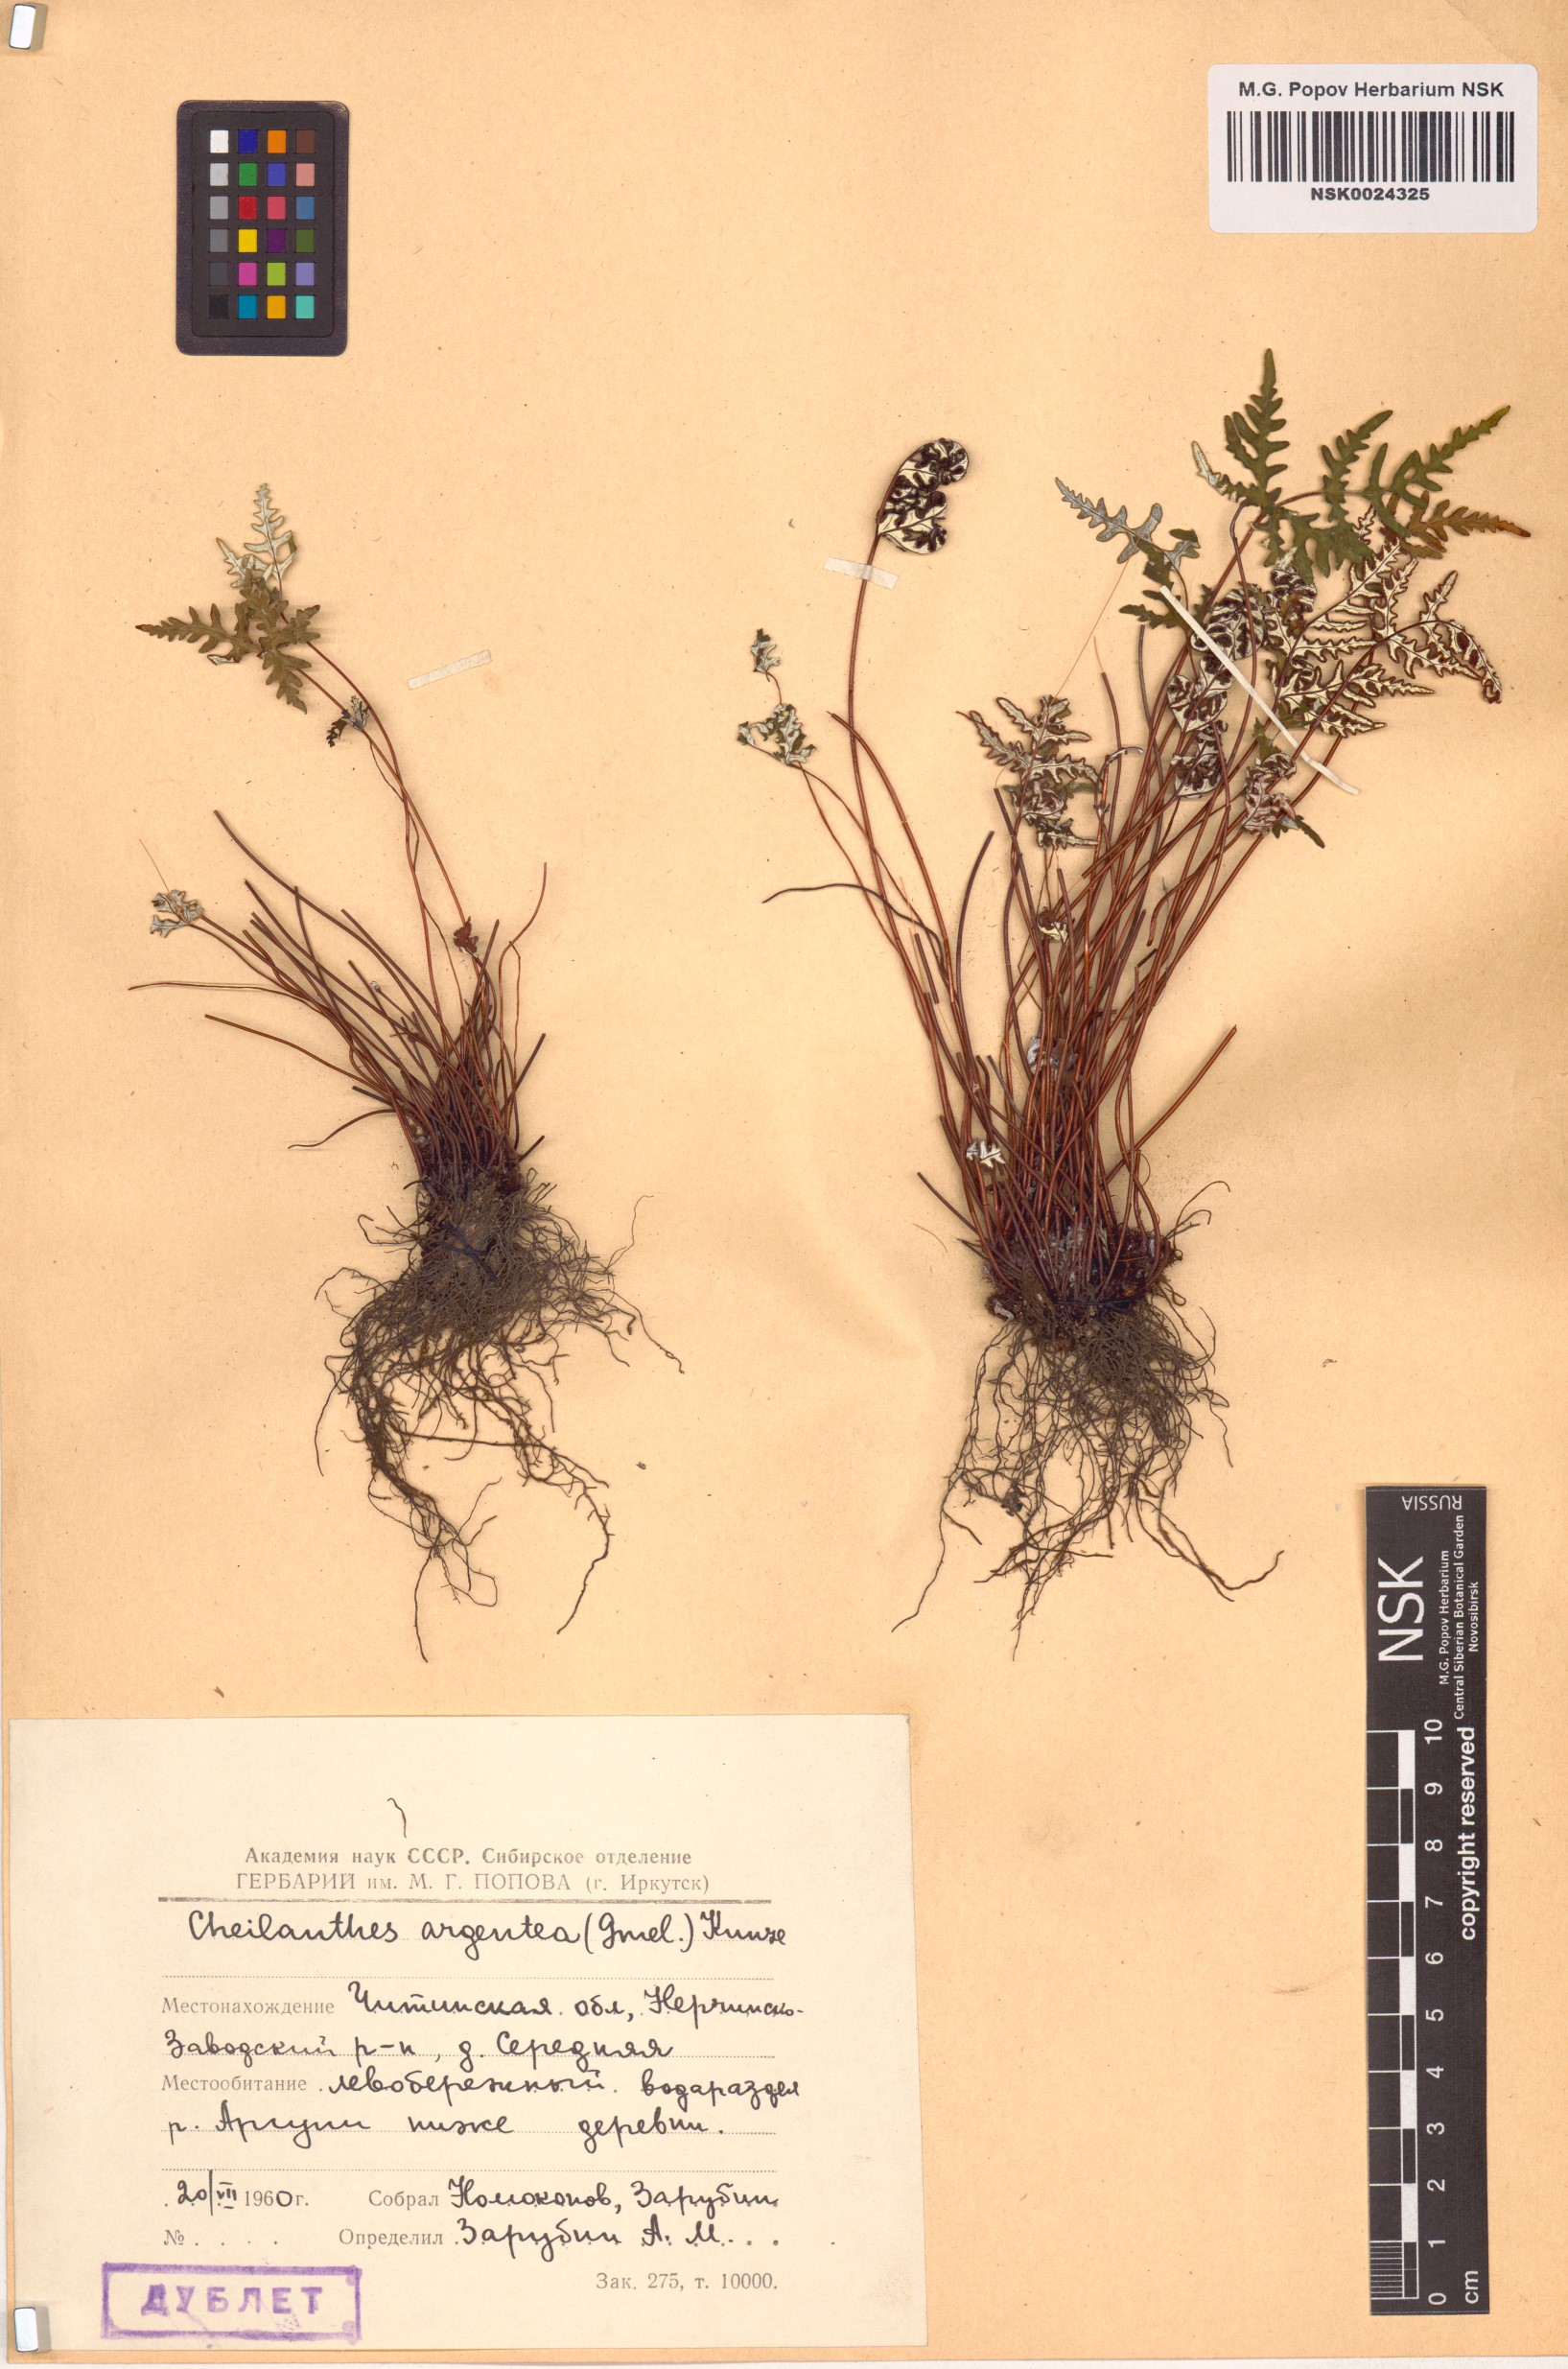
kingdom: Plantae
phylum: Tracheophyta
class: Polypodiopsida
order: Polypodiales
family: Pteridaceae
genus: Aleuritopteris
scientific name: Aleuritopteris argentea
